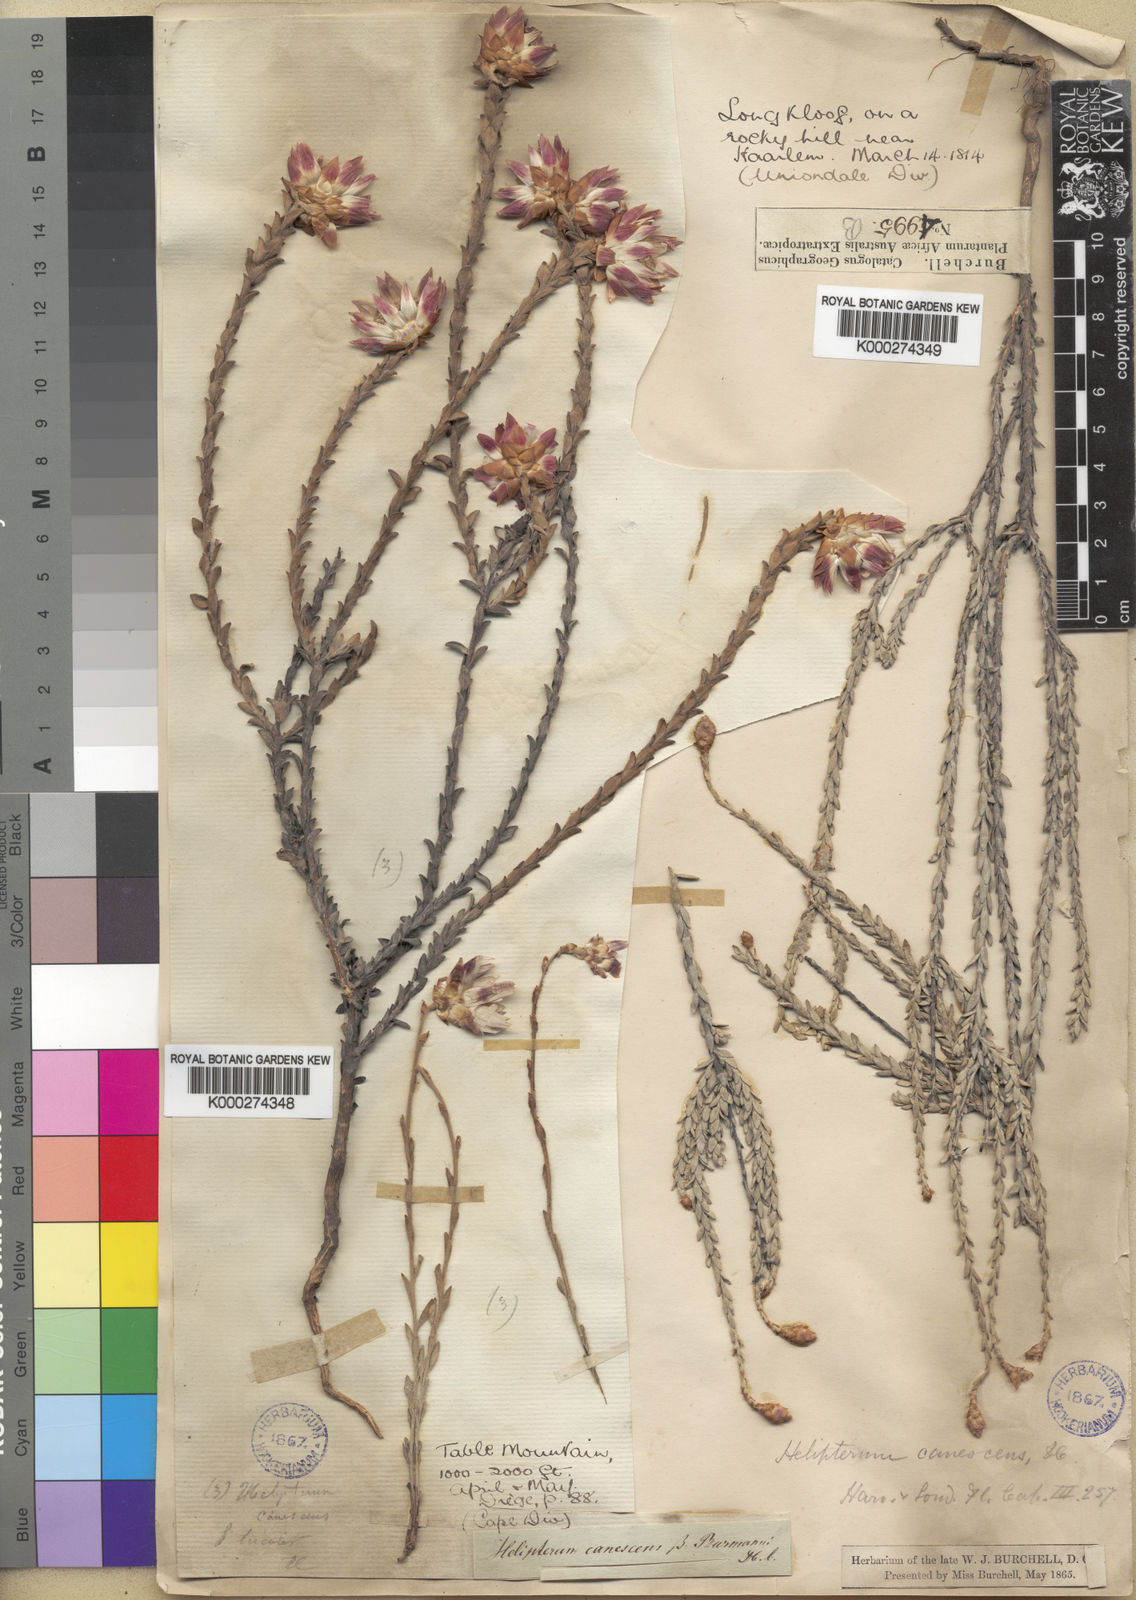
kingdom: Plantae
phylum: Tracheophyta
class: Magnoliopsida
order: Asterales
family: Asteraceae
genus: Syncarpha
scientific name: Syncarpha canescens
